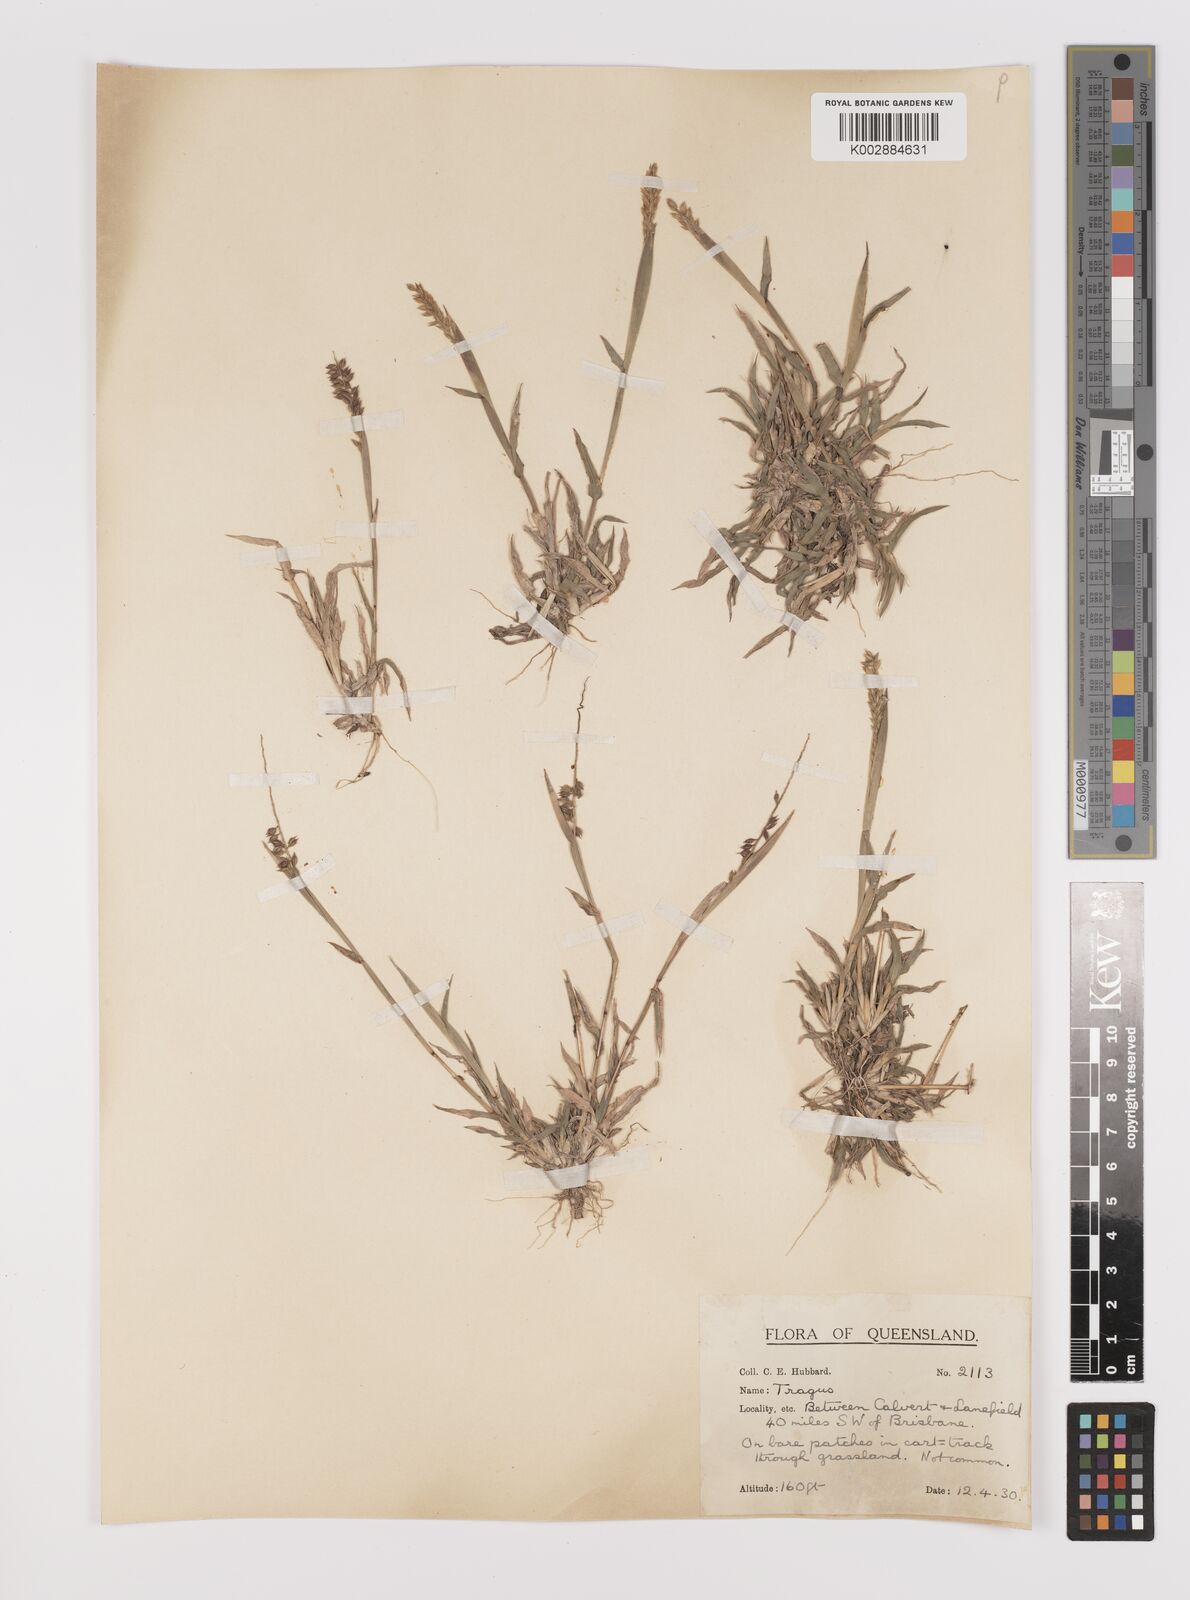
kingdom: Plantae
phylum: Tracheophyta
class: Liliopsida
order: Poales
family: Poaceae
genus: Tragus
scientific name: Tragus australianus
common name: Australian bur-grass
